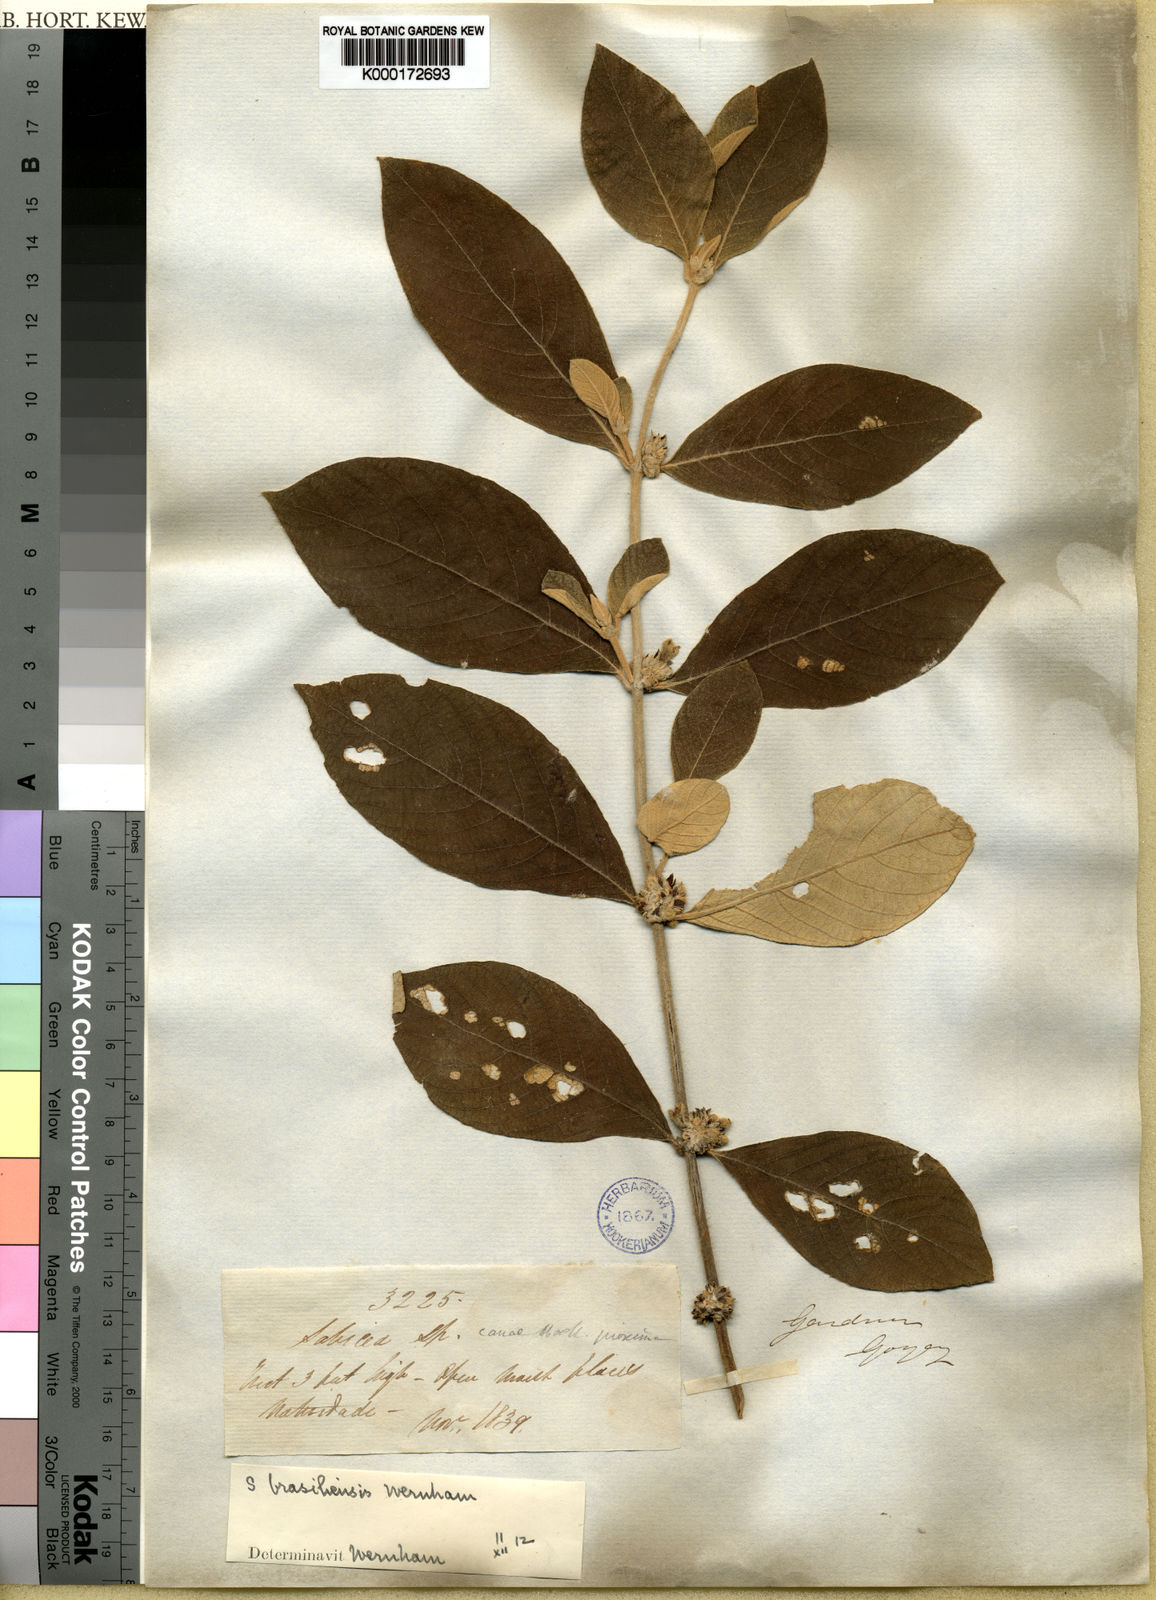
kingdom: Plantae
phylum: Tracheophyta
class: Magnoliopsida
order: Gentianales
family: Rubiaceae
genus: Sabicea
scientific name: Sabicea brasiliensis
